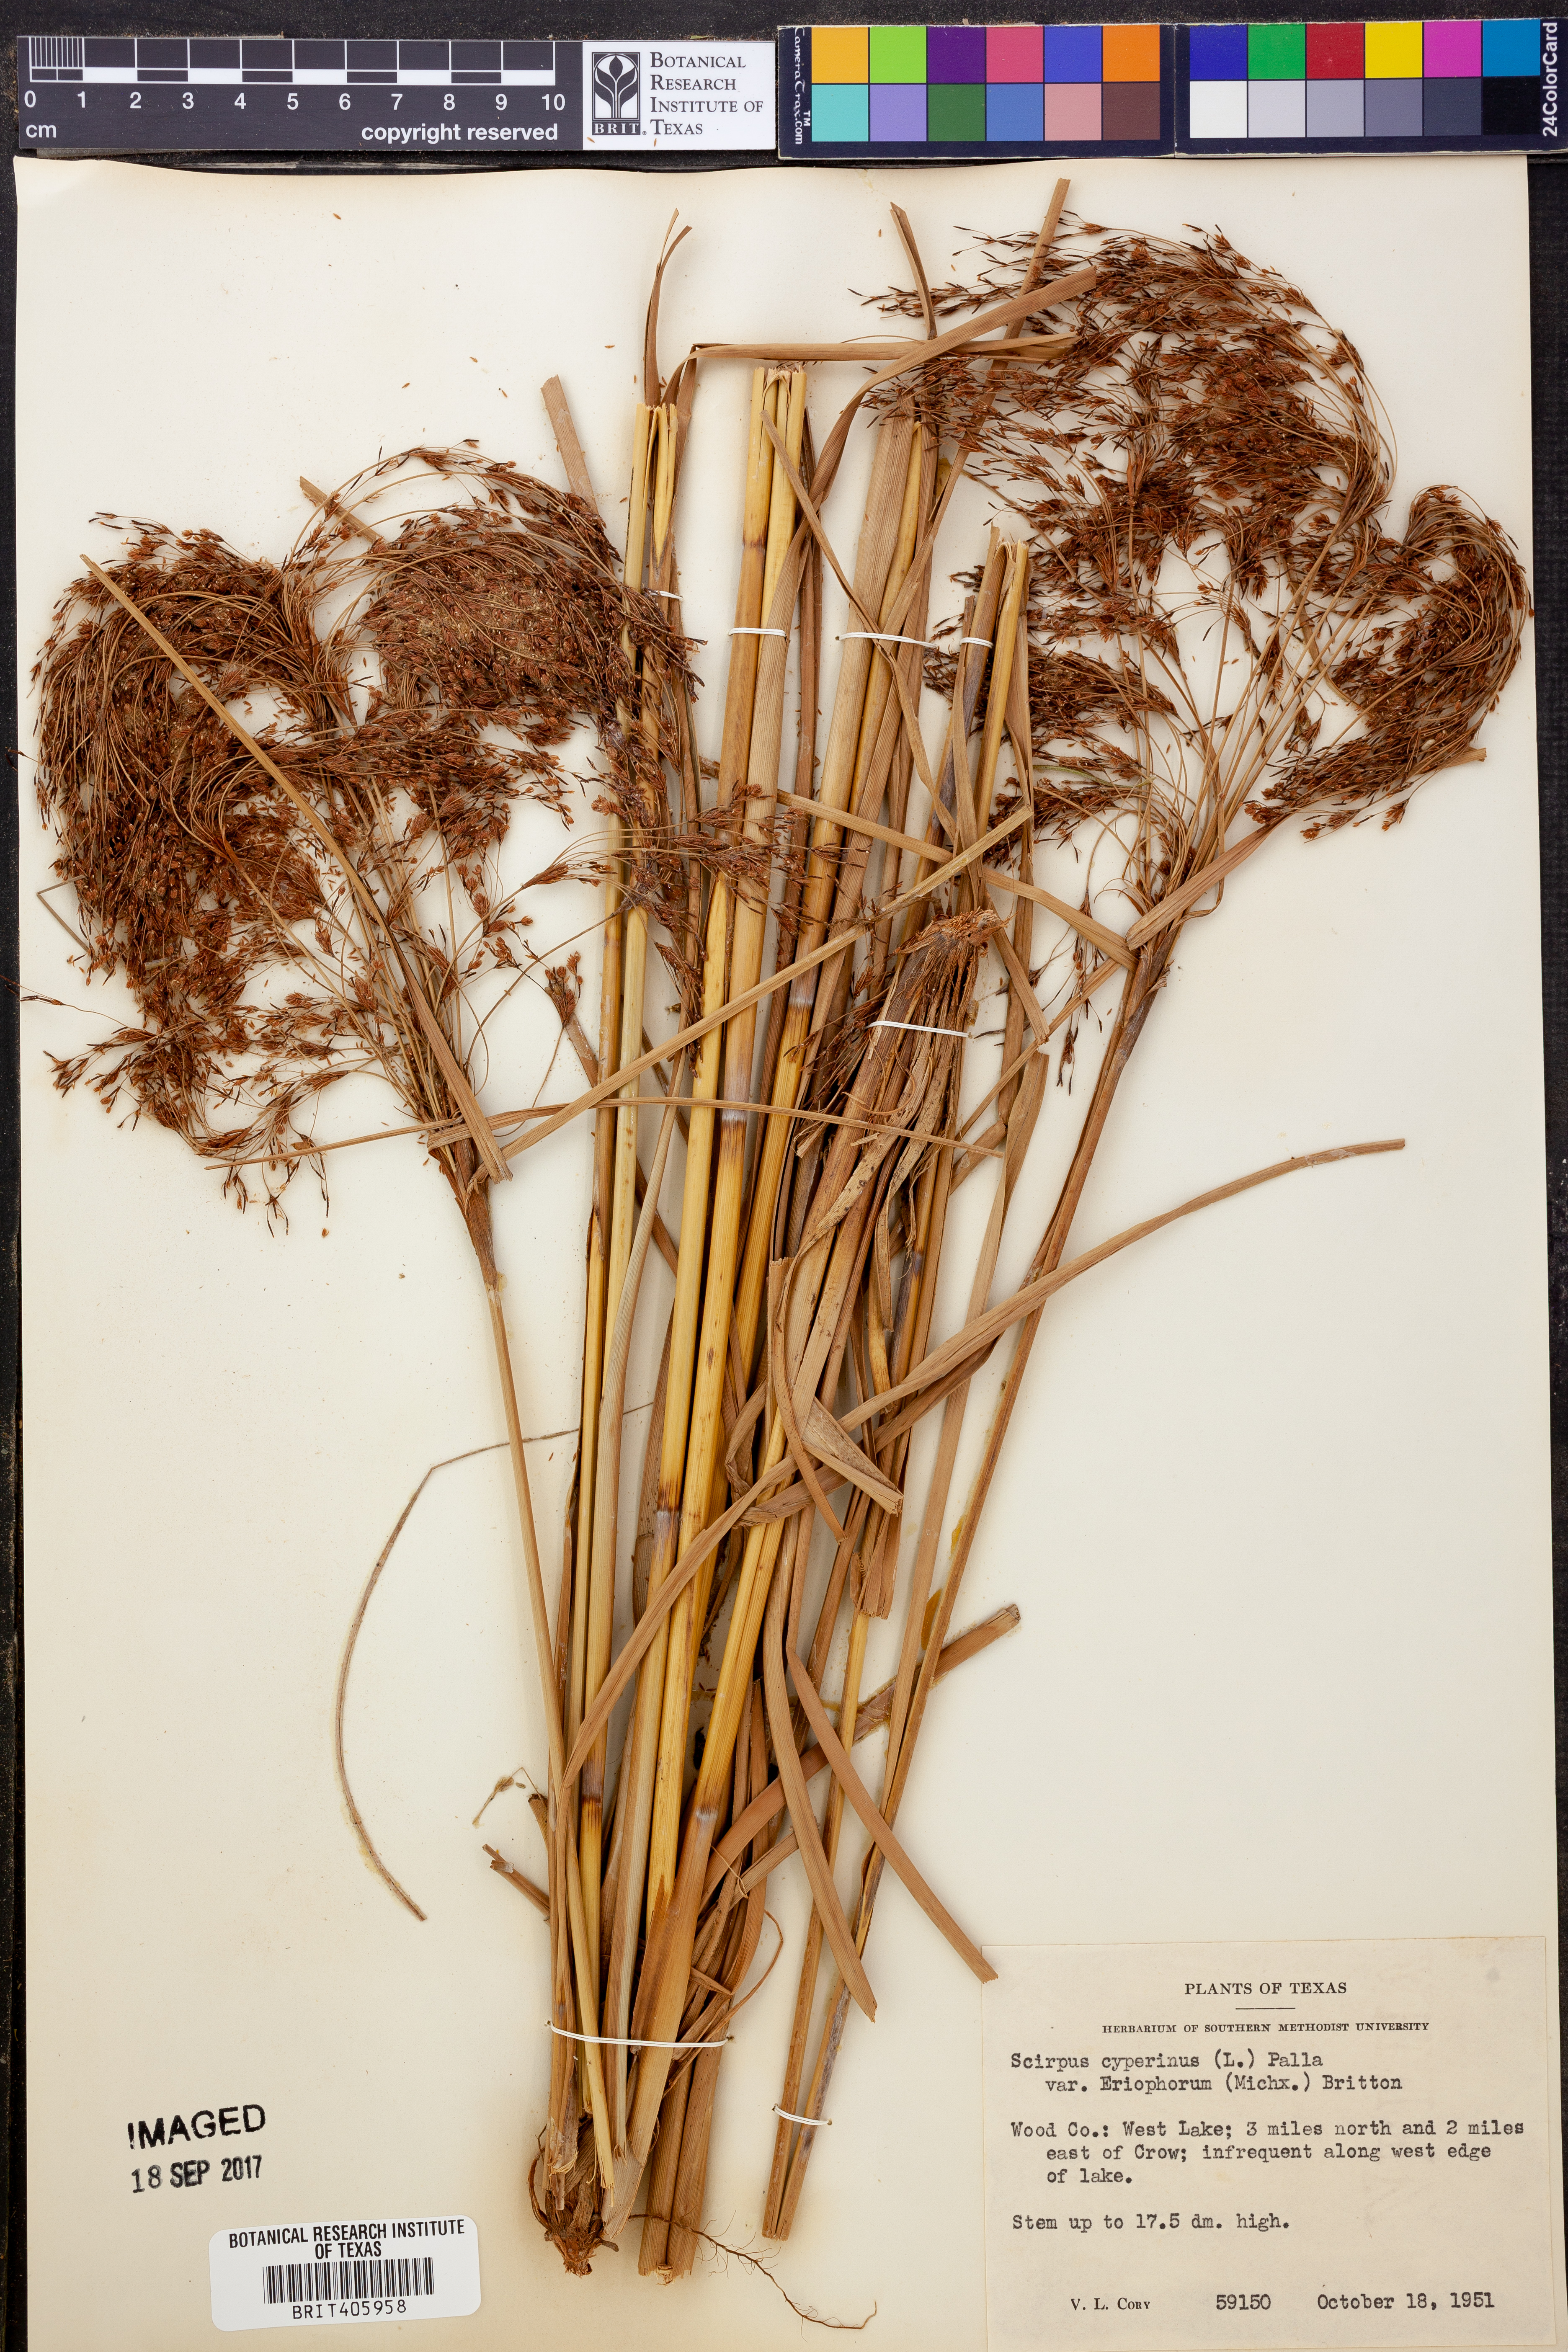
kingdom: Plantae
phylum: Tracheophyta
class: Liliopsida
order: Poales
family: Cyperaceae
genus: Scirpus
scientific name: Scirpus cyperinus
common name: Black-sheathed bulrush
